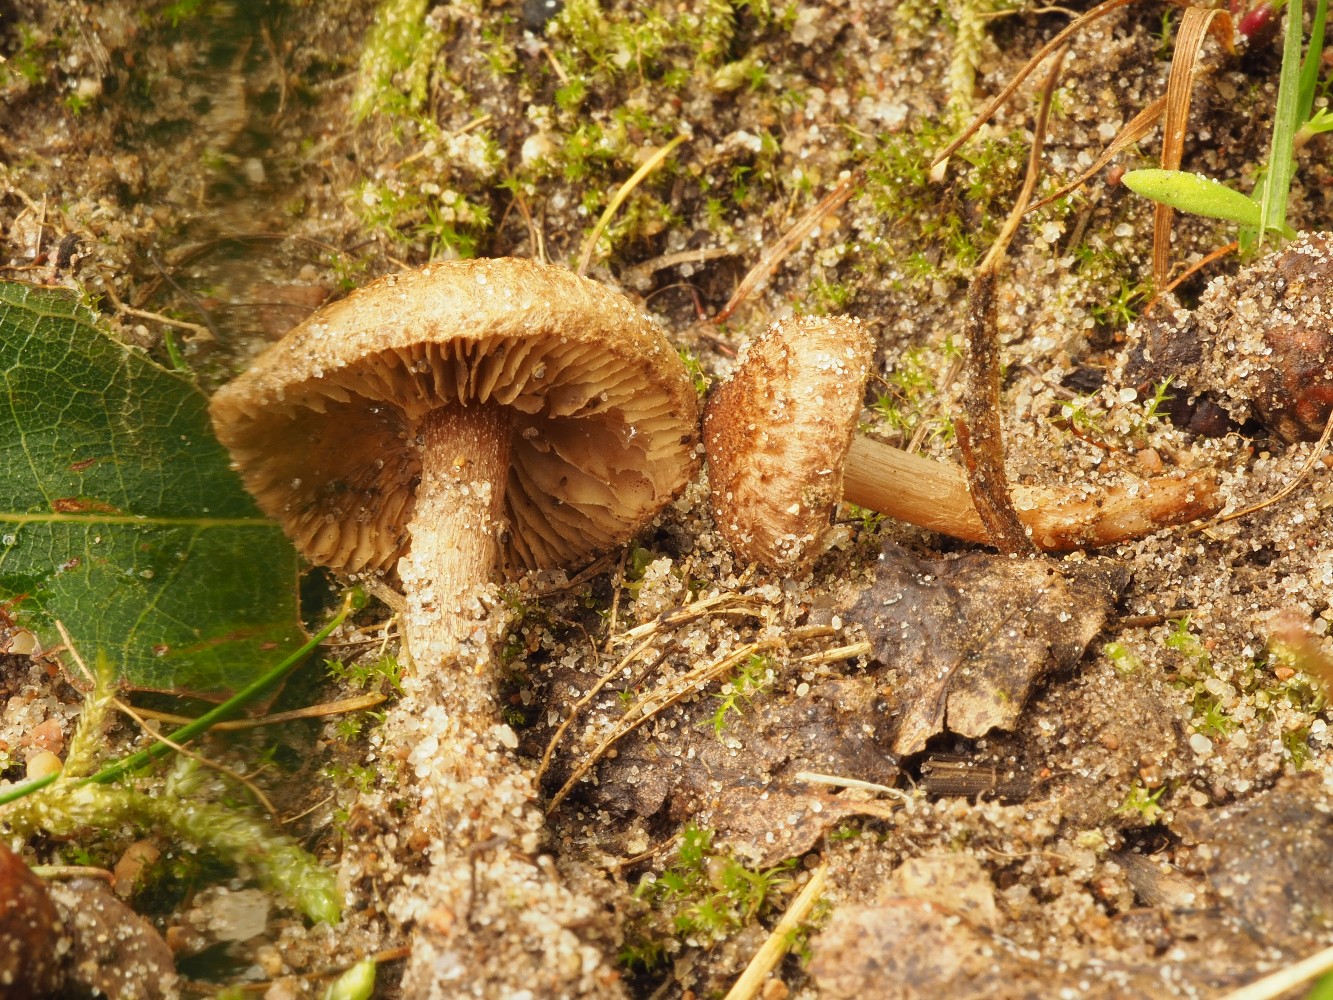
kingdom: Fungi
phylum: Basidiomycota
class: Agaricomycetes
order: Agaricales
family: Inocybaceae
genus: Inocybe
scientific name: Inocybe lacera
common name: laset trævlhat
